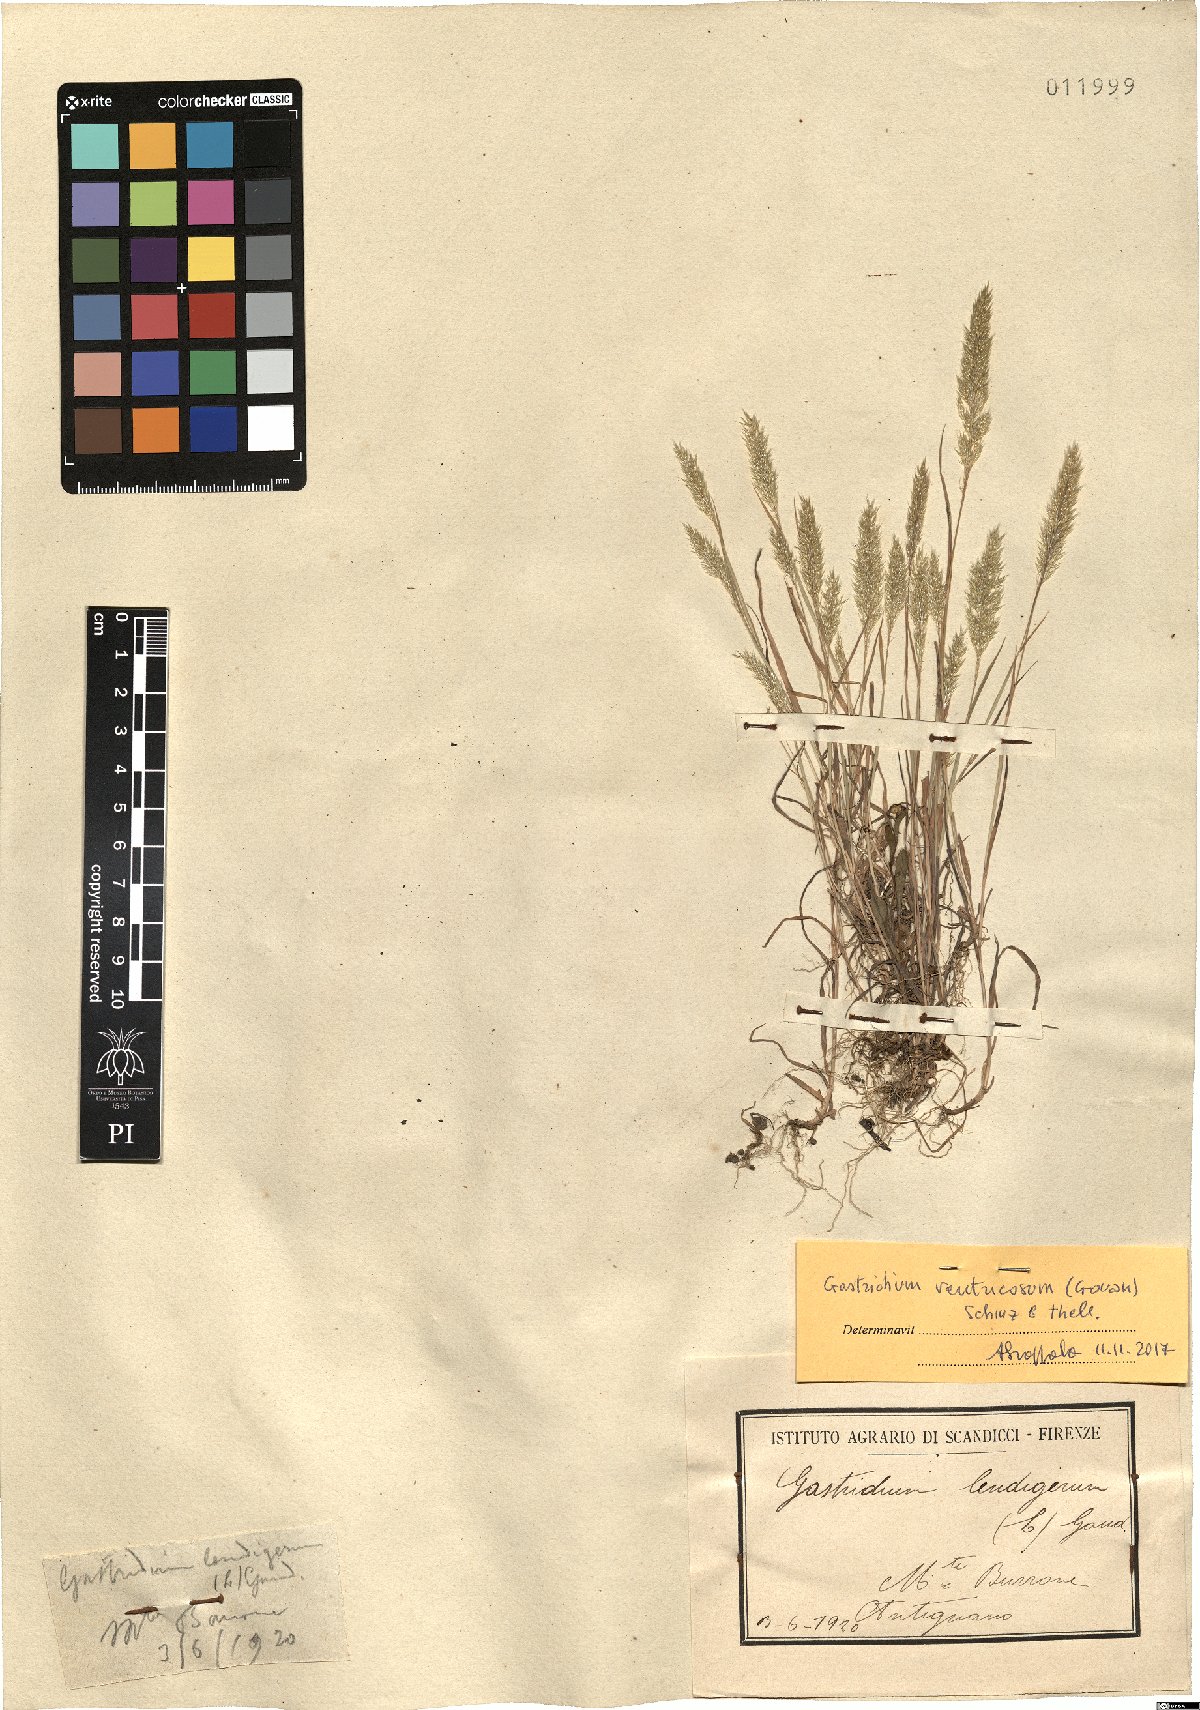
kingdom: Plantae
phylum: Tracheophyta
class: Liliopsida
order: Poales
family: Poaceae
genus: Gastridium
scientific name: Gastridium ventricosum
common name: Nit-grass
